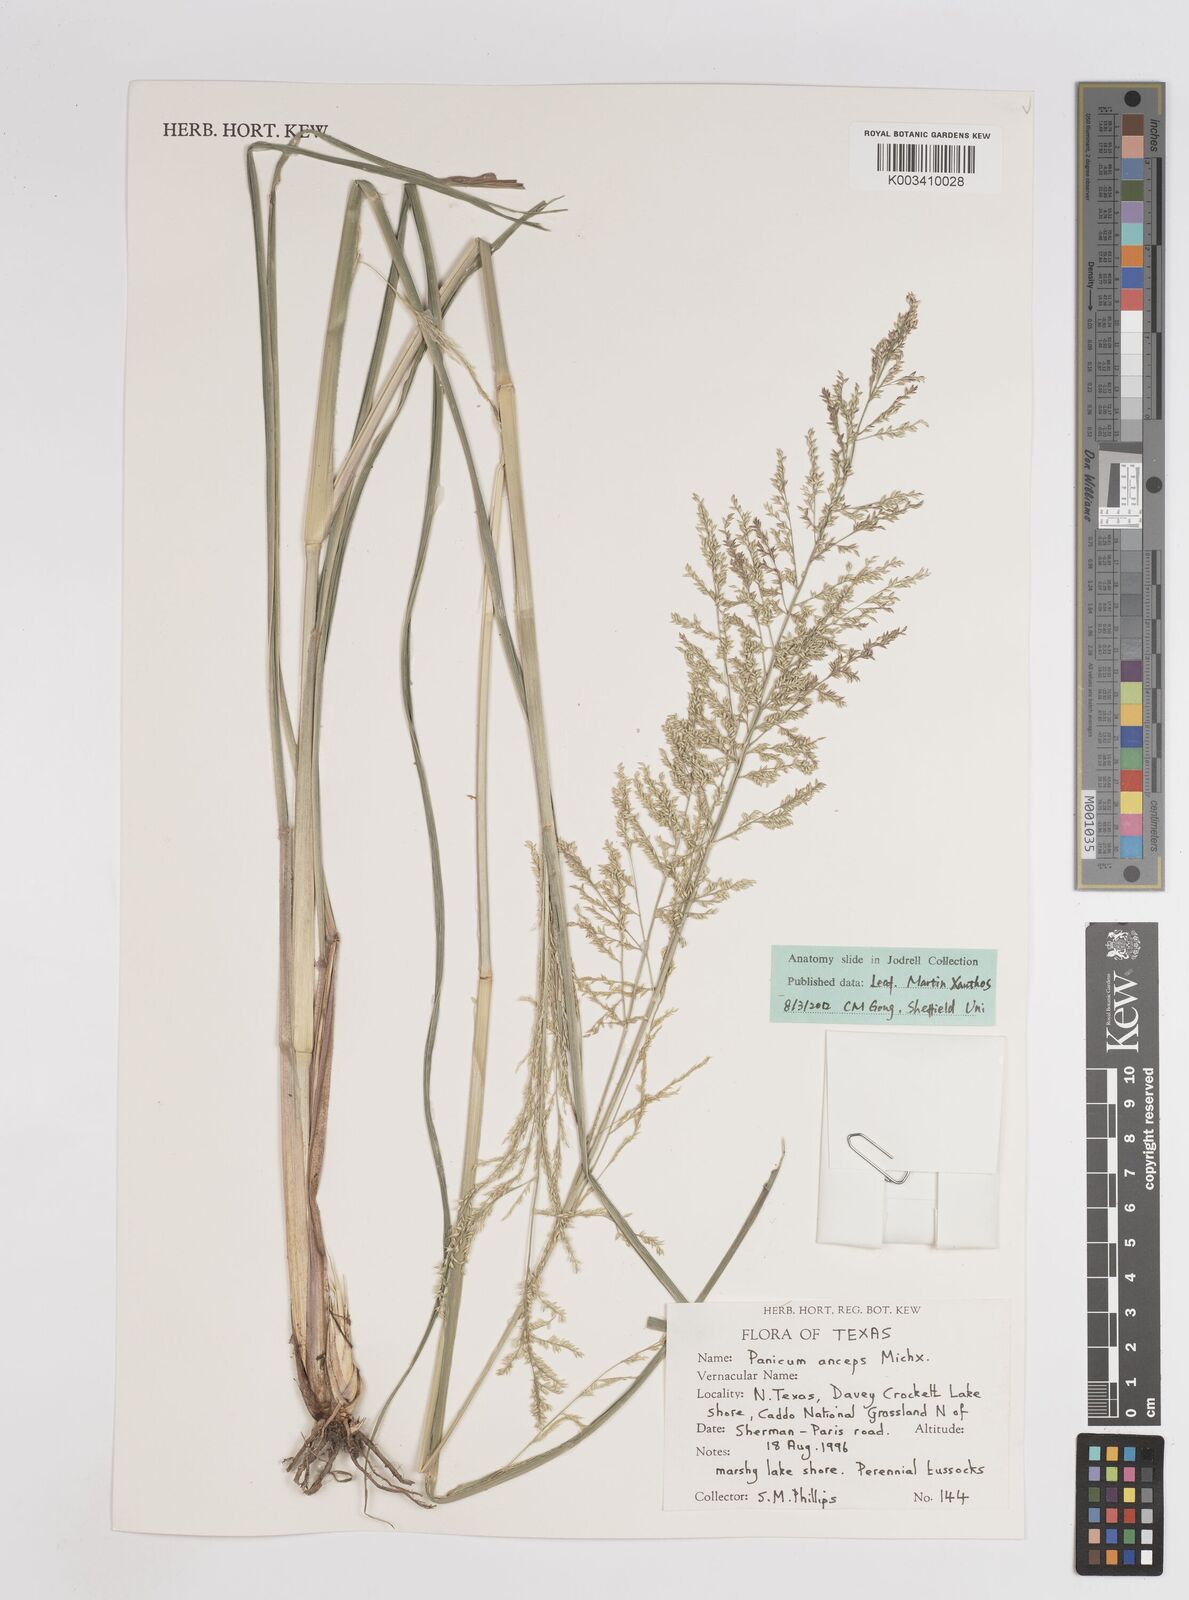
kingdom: Plantae
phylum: Tracheophyta
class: Liliopsida
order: Poales
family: Poaceae
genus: Coleataenia
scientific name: Coleataenia anceps
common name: Beaked panic grass
